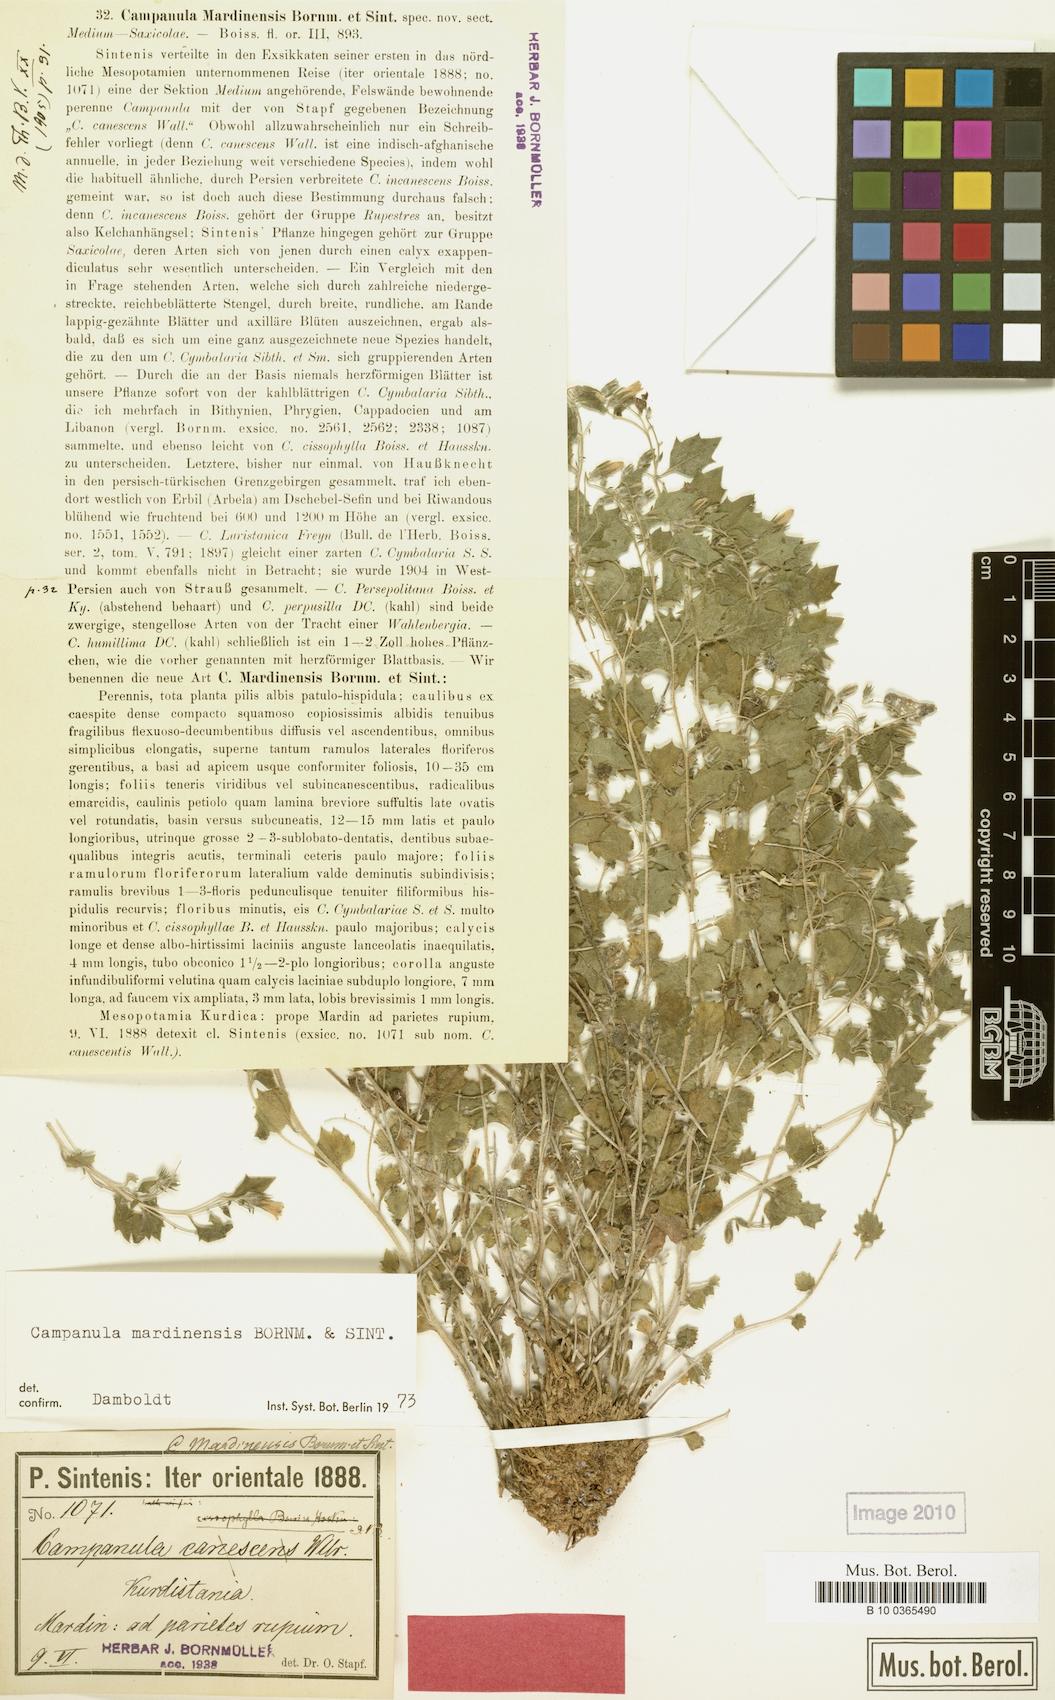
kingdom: Plantae
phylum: Tracheophyta
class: Magnoliopsida
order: Asterales
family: Campanulaceae
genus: Campanula
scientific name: Campanula mardinensis
